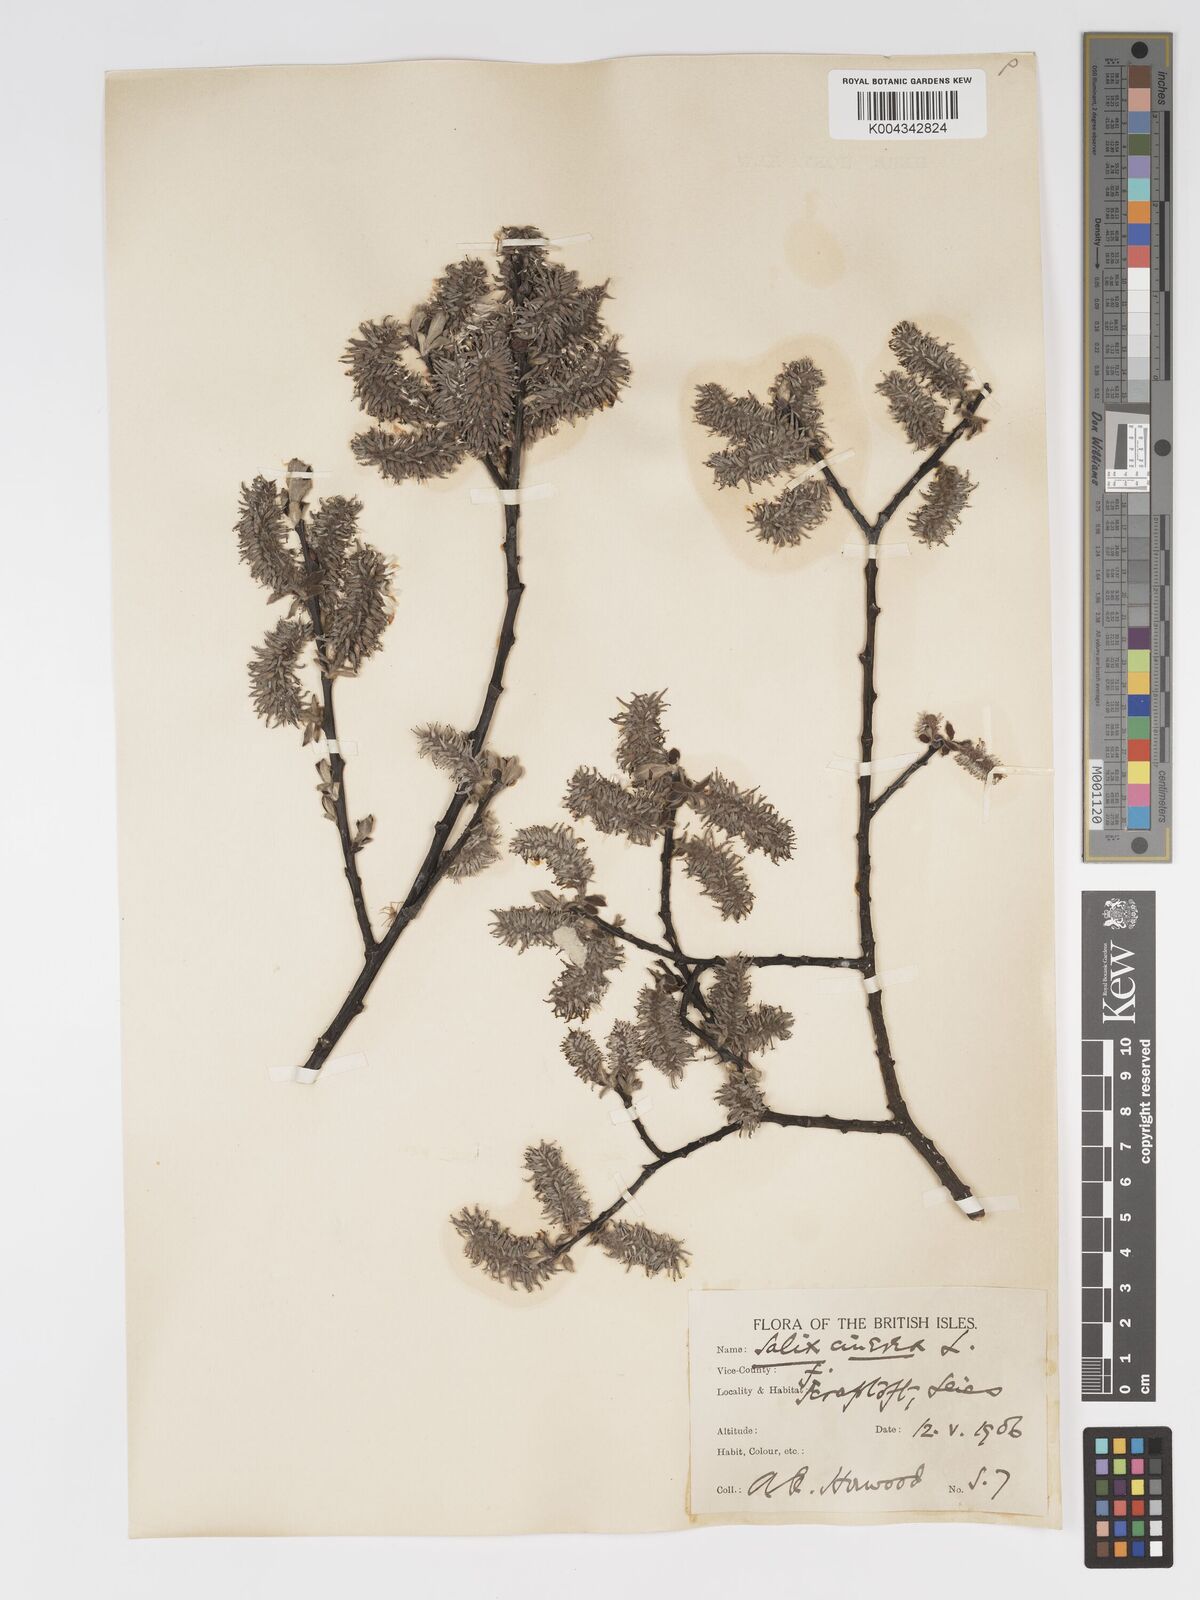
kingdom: Plantae
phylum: Tracheophyta
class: Magnoliopsida
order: Malpighiales
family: Salicaceae
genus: Salix
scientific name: Salix atrocinerea
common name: Rusty willow
